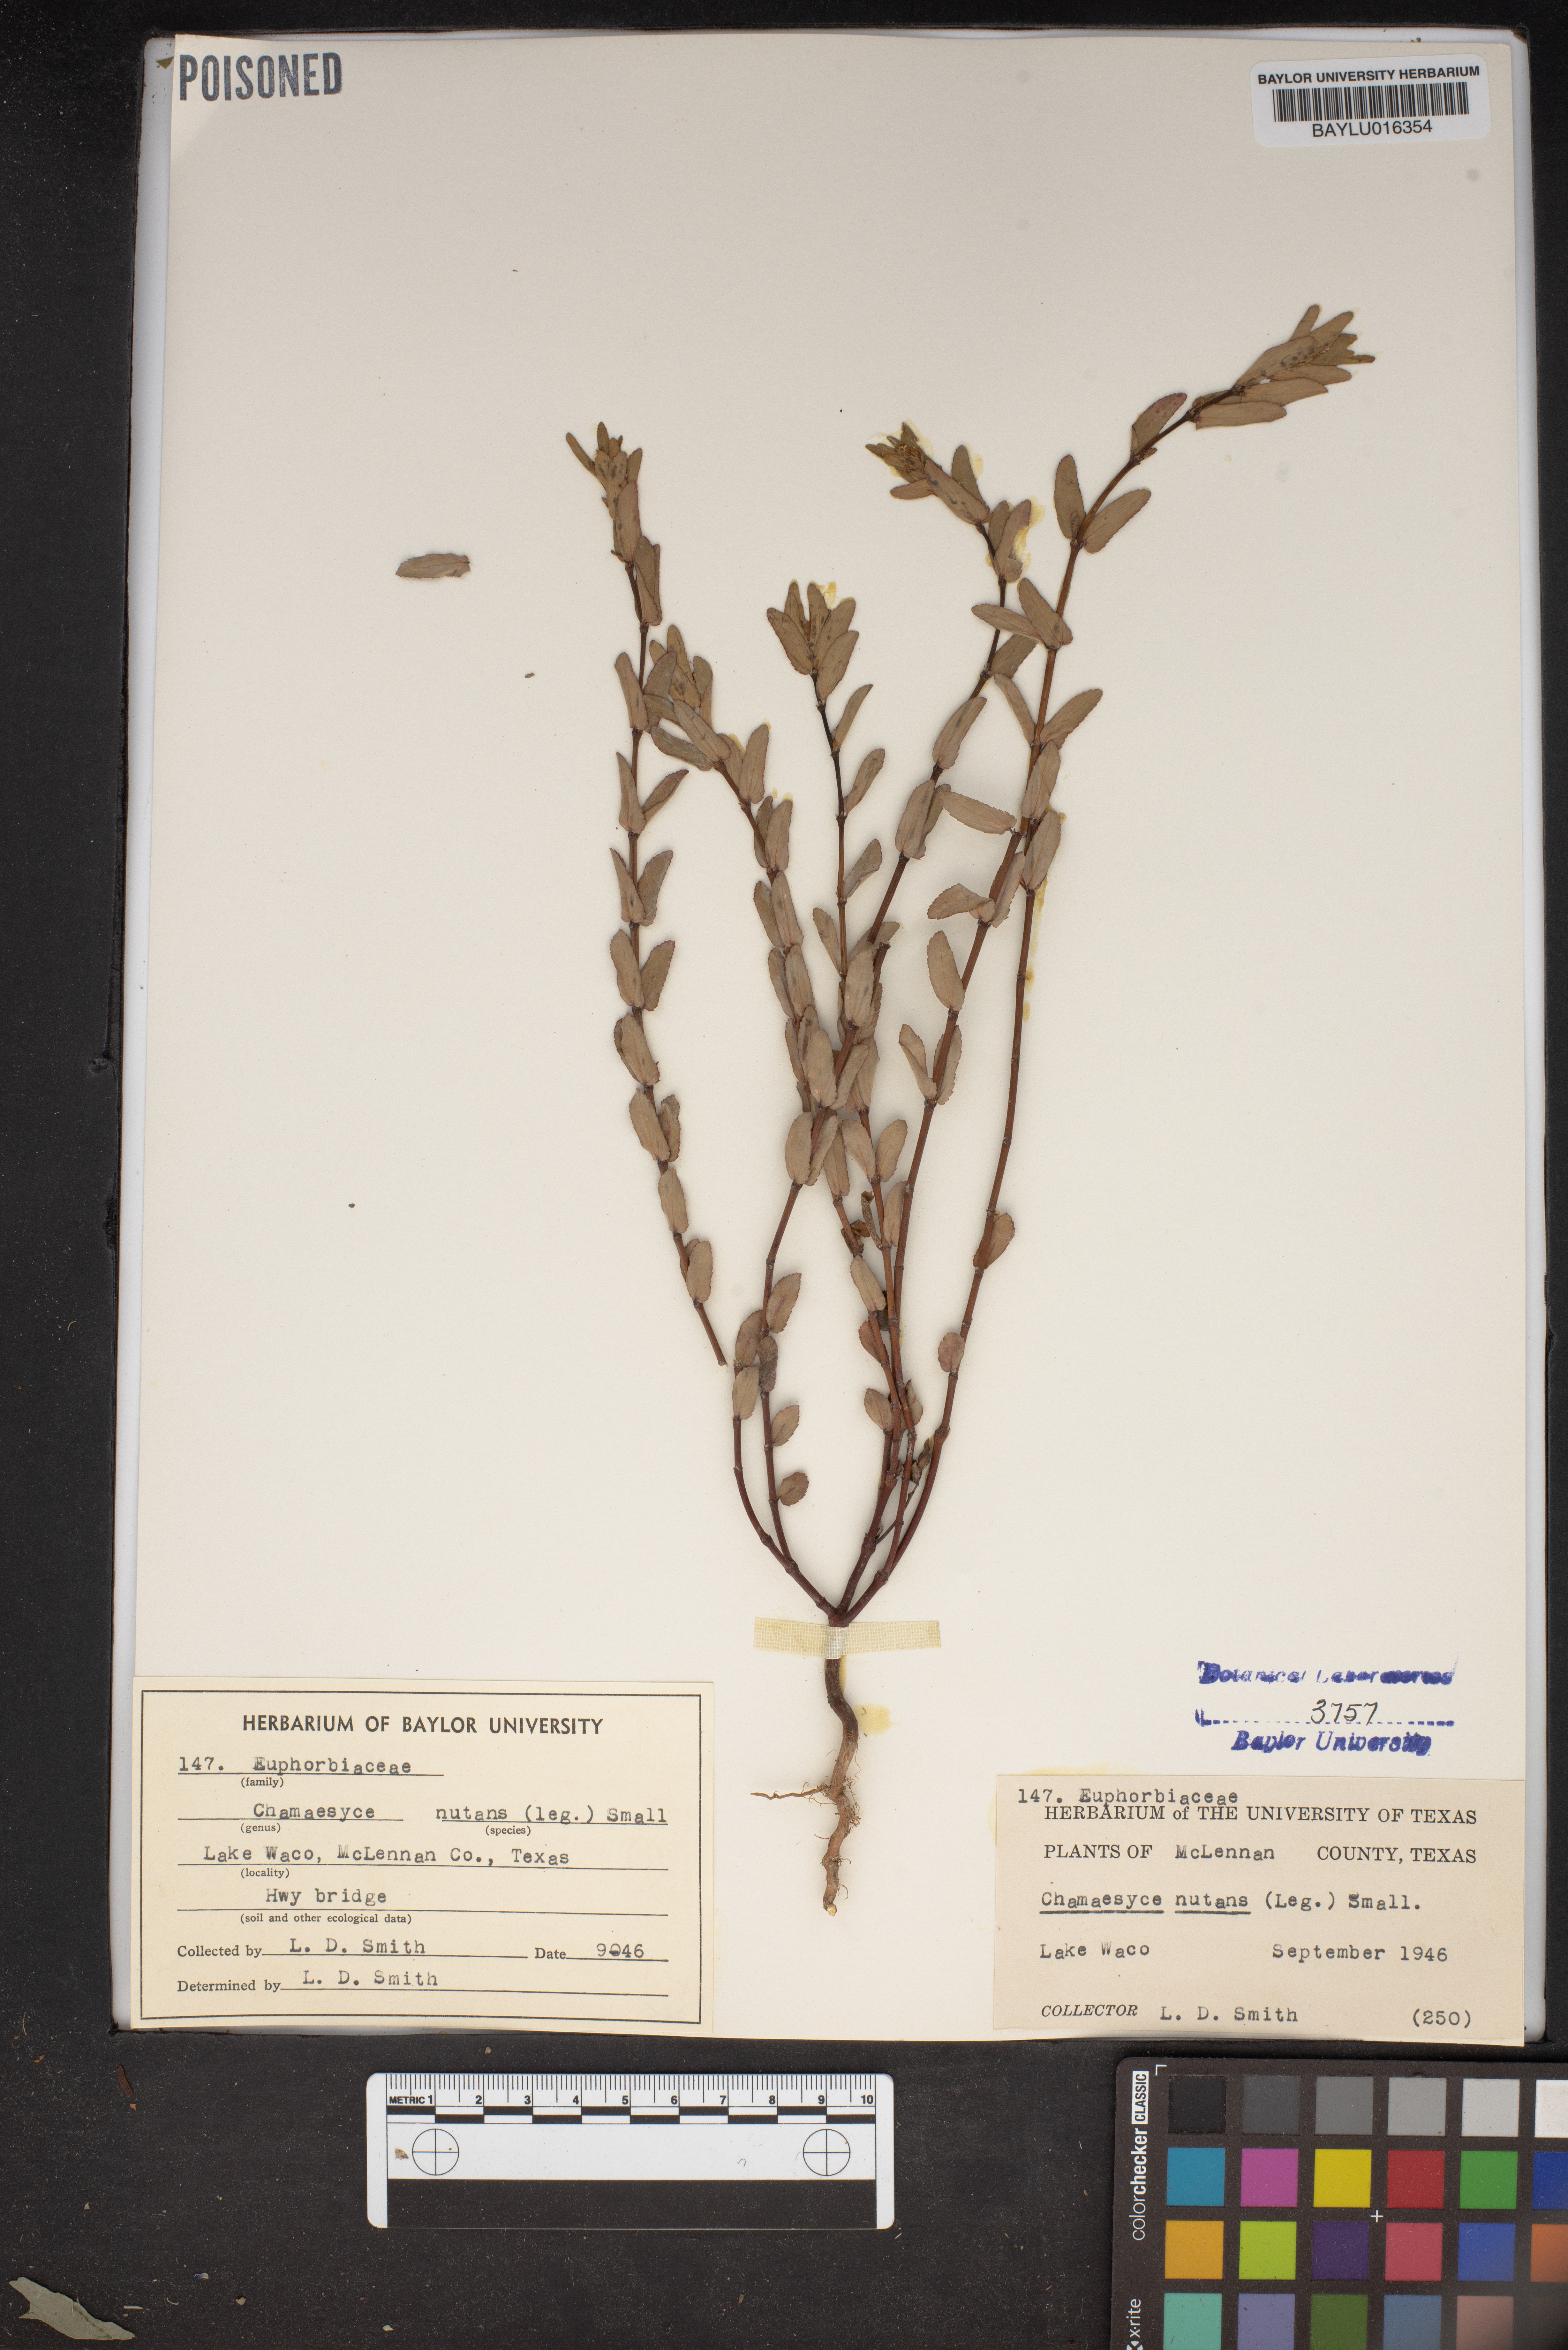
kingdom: Plantae
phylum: Tracheophyta
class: Magnoliopsida
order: Malpighiales
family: Euphorbiaceae
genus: Euphorbia
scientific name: Euphorbia nutans
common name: Eyebane
